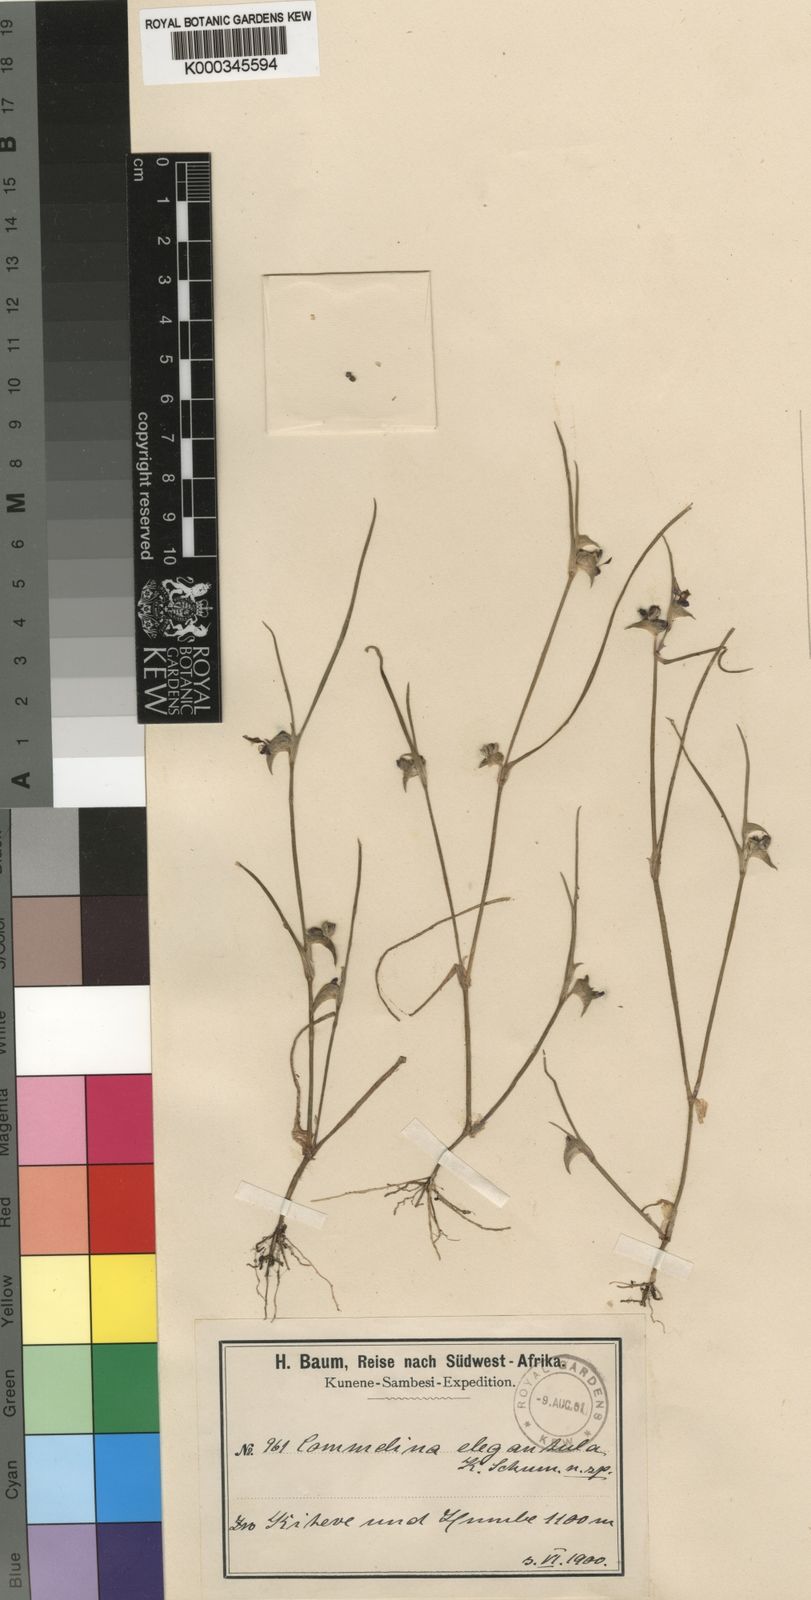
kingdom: Plantae
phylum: Tracheophyta
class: Liliopsida
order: Commelinales
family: Commelinaceae
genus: Commelina
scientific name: Commelina subulata
